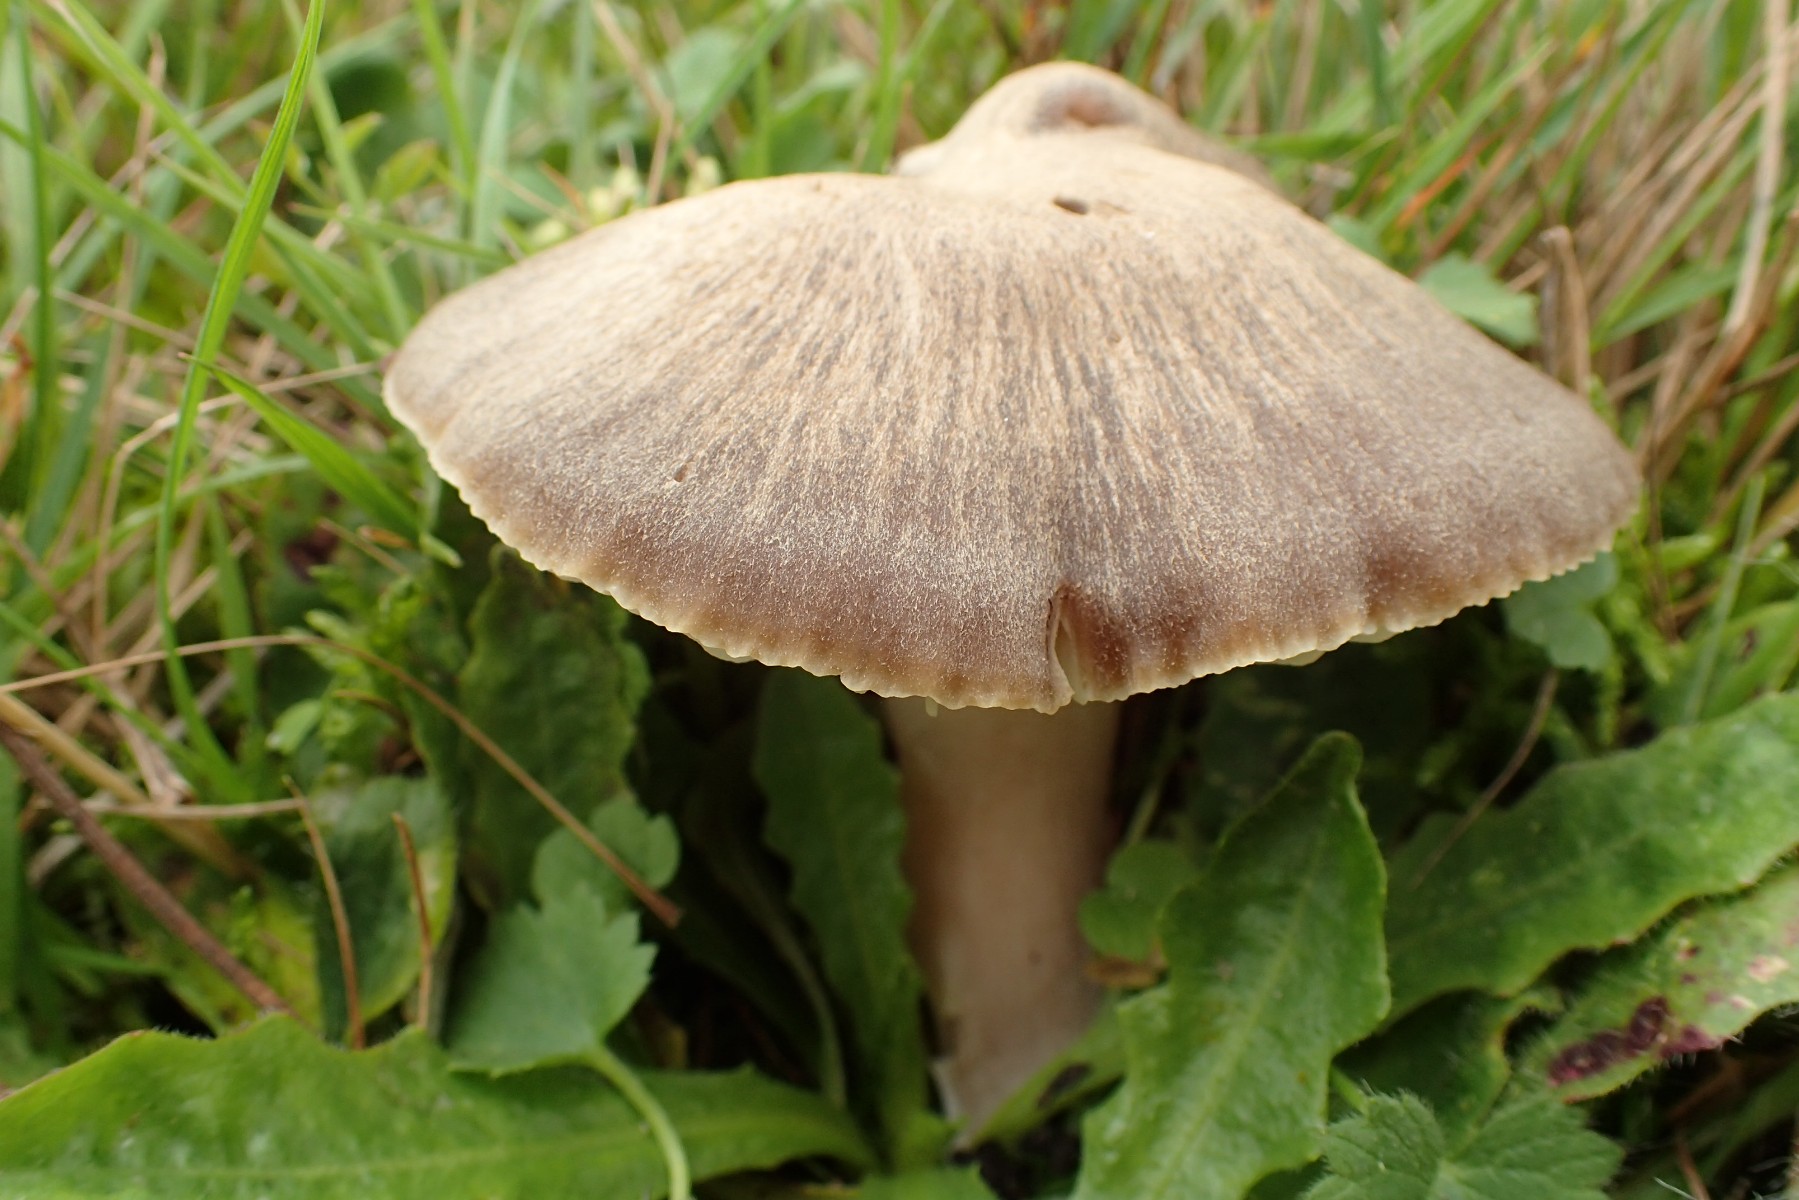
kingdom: Fungi
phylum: Basidiomycota
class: Agaricomycetes
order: Agaricales
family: Hygrophoraceae
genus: Neohygrocybe
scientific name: Neohygrocybe nitrata
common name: stinkende vokshat
